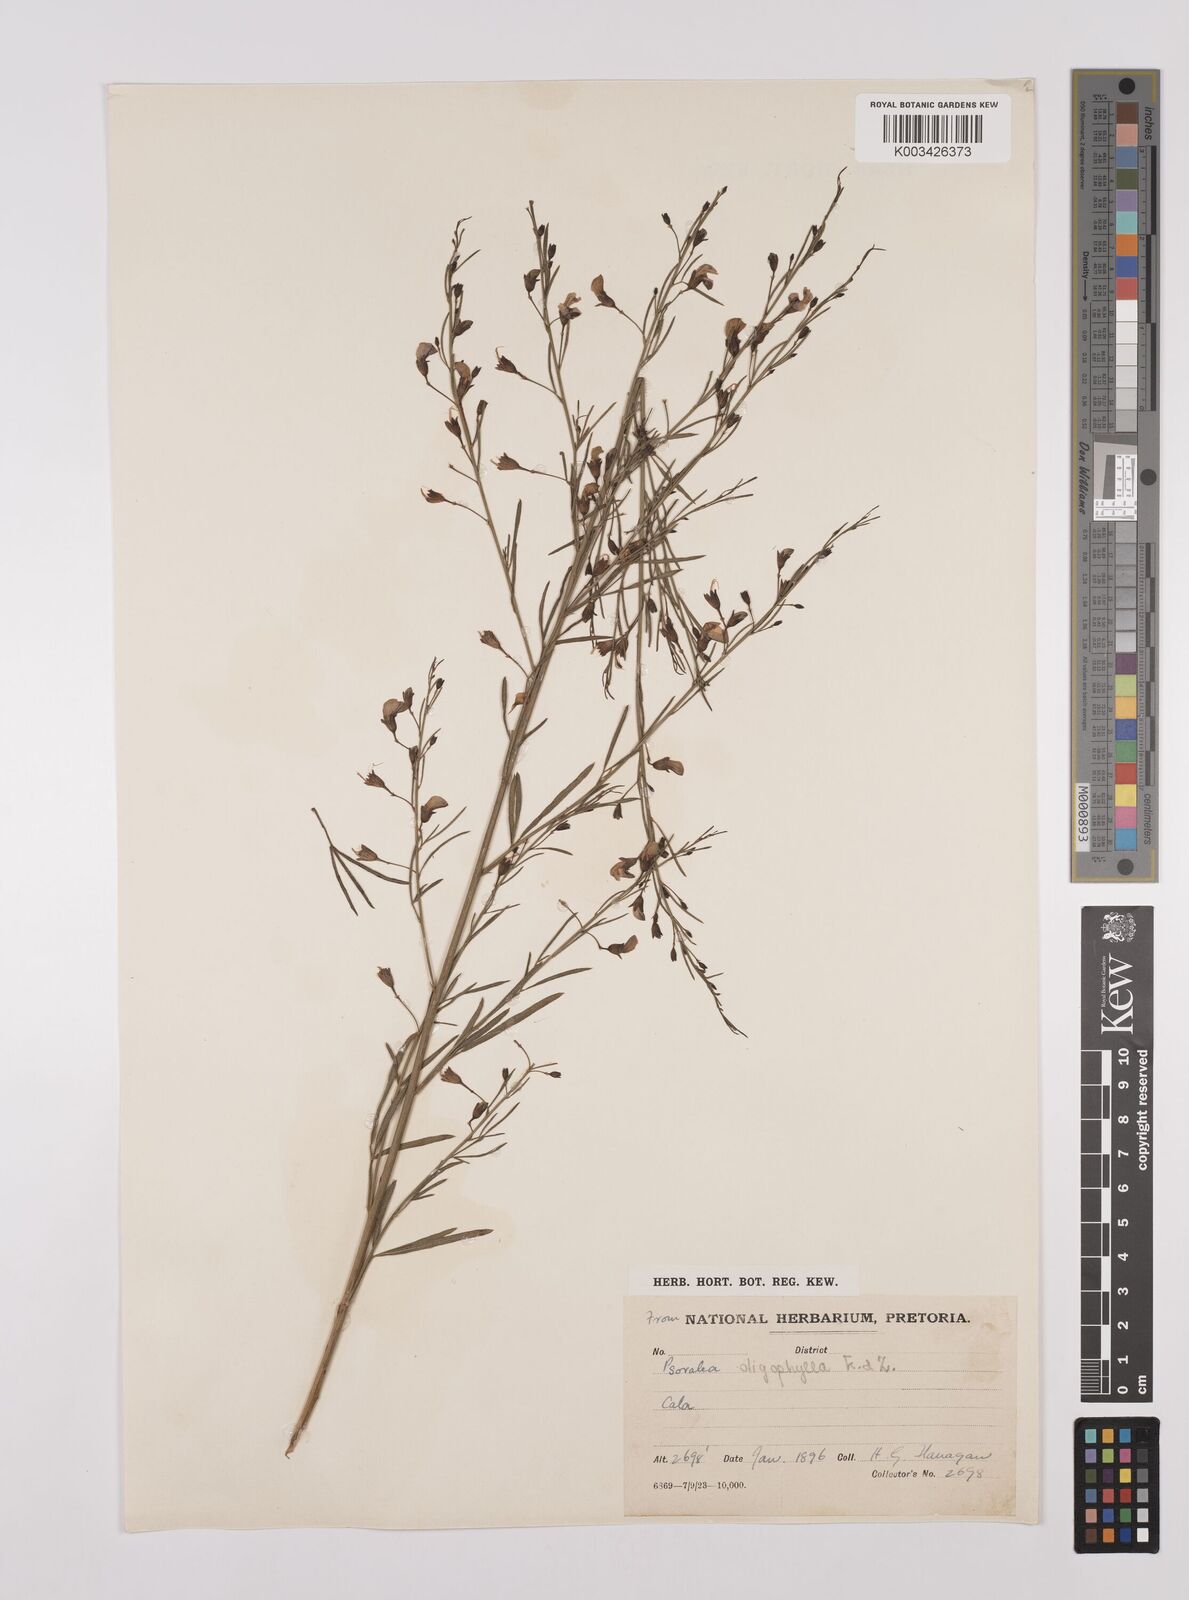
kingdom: Plantae
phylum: Tracheophyta
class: Magnoliopsida
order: Fabales
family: Fabaceae
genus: Psoralea
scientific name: Psoralea rhizotoma
